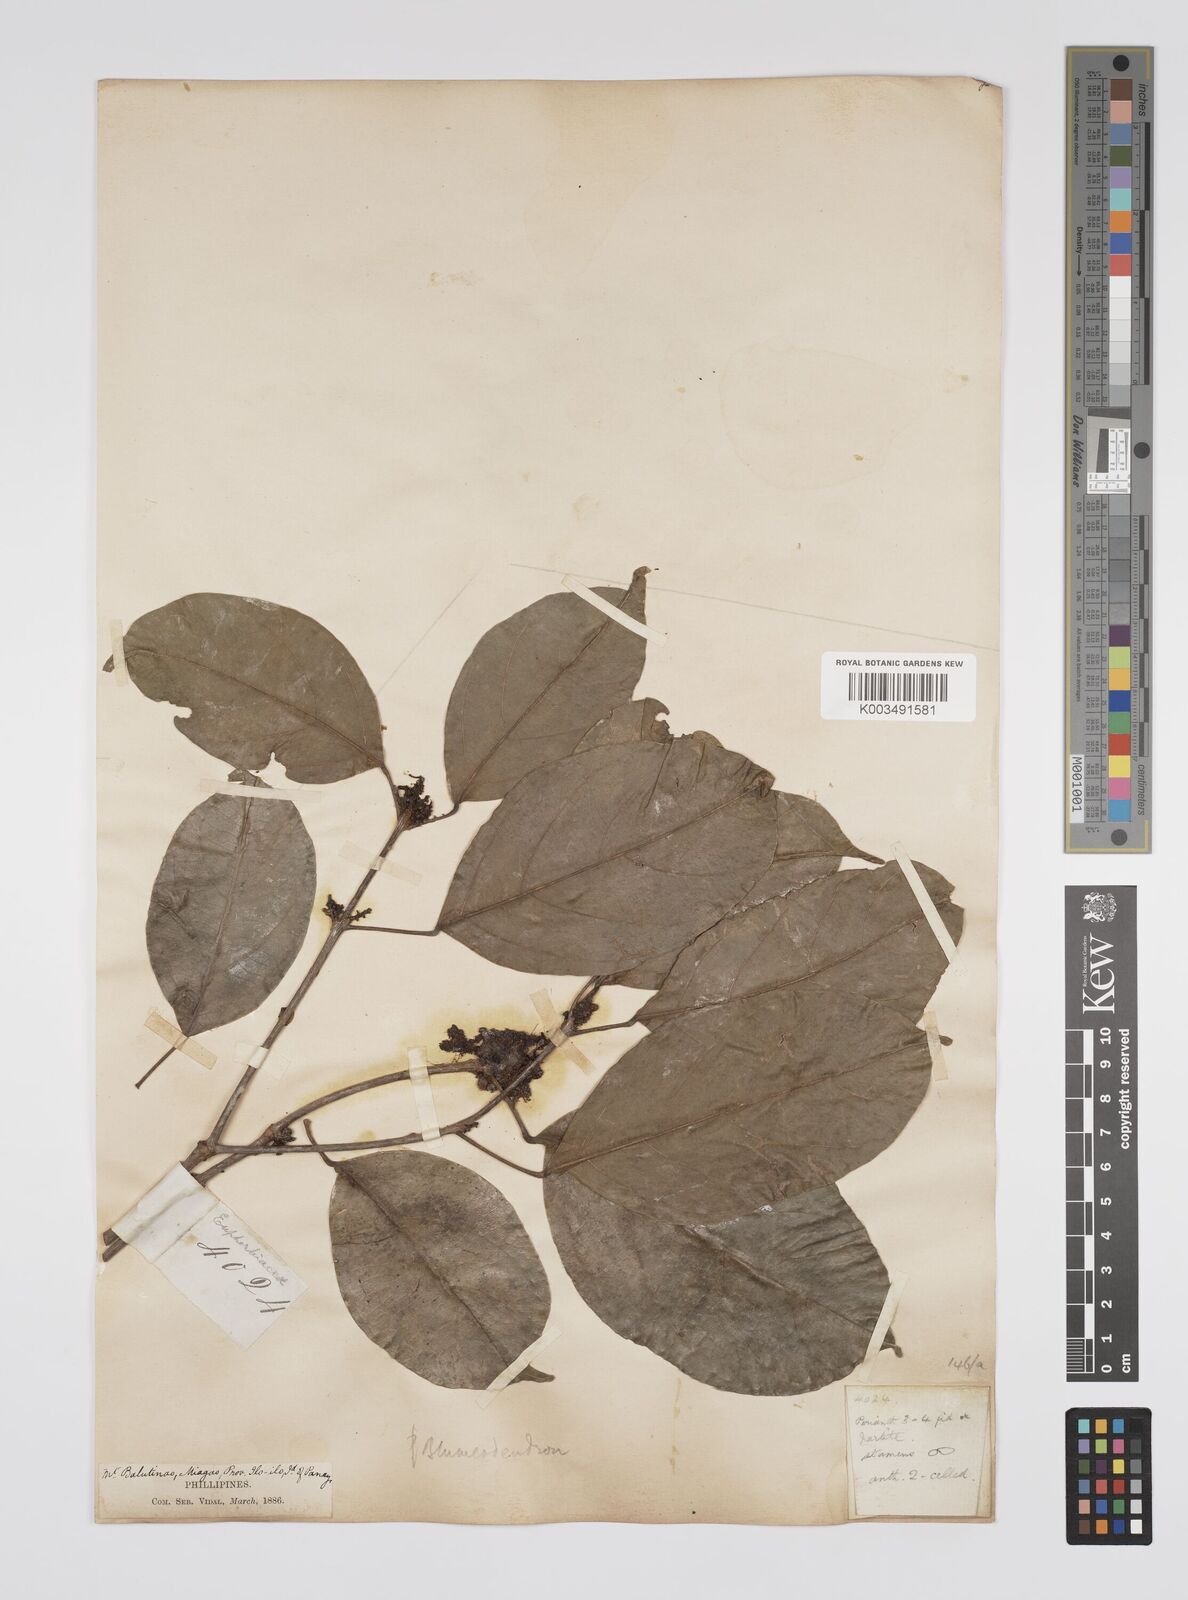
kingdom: Plantae
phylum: Tracheophyta
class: Magnoliopsida
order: Malpighiales
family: Euphorbiaceae
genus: Blumeodendron
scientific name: Blumeodendron
